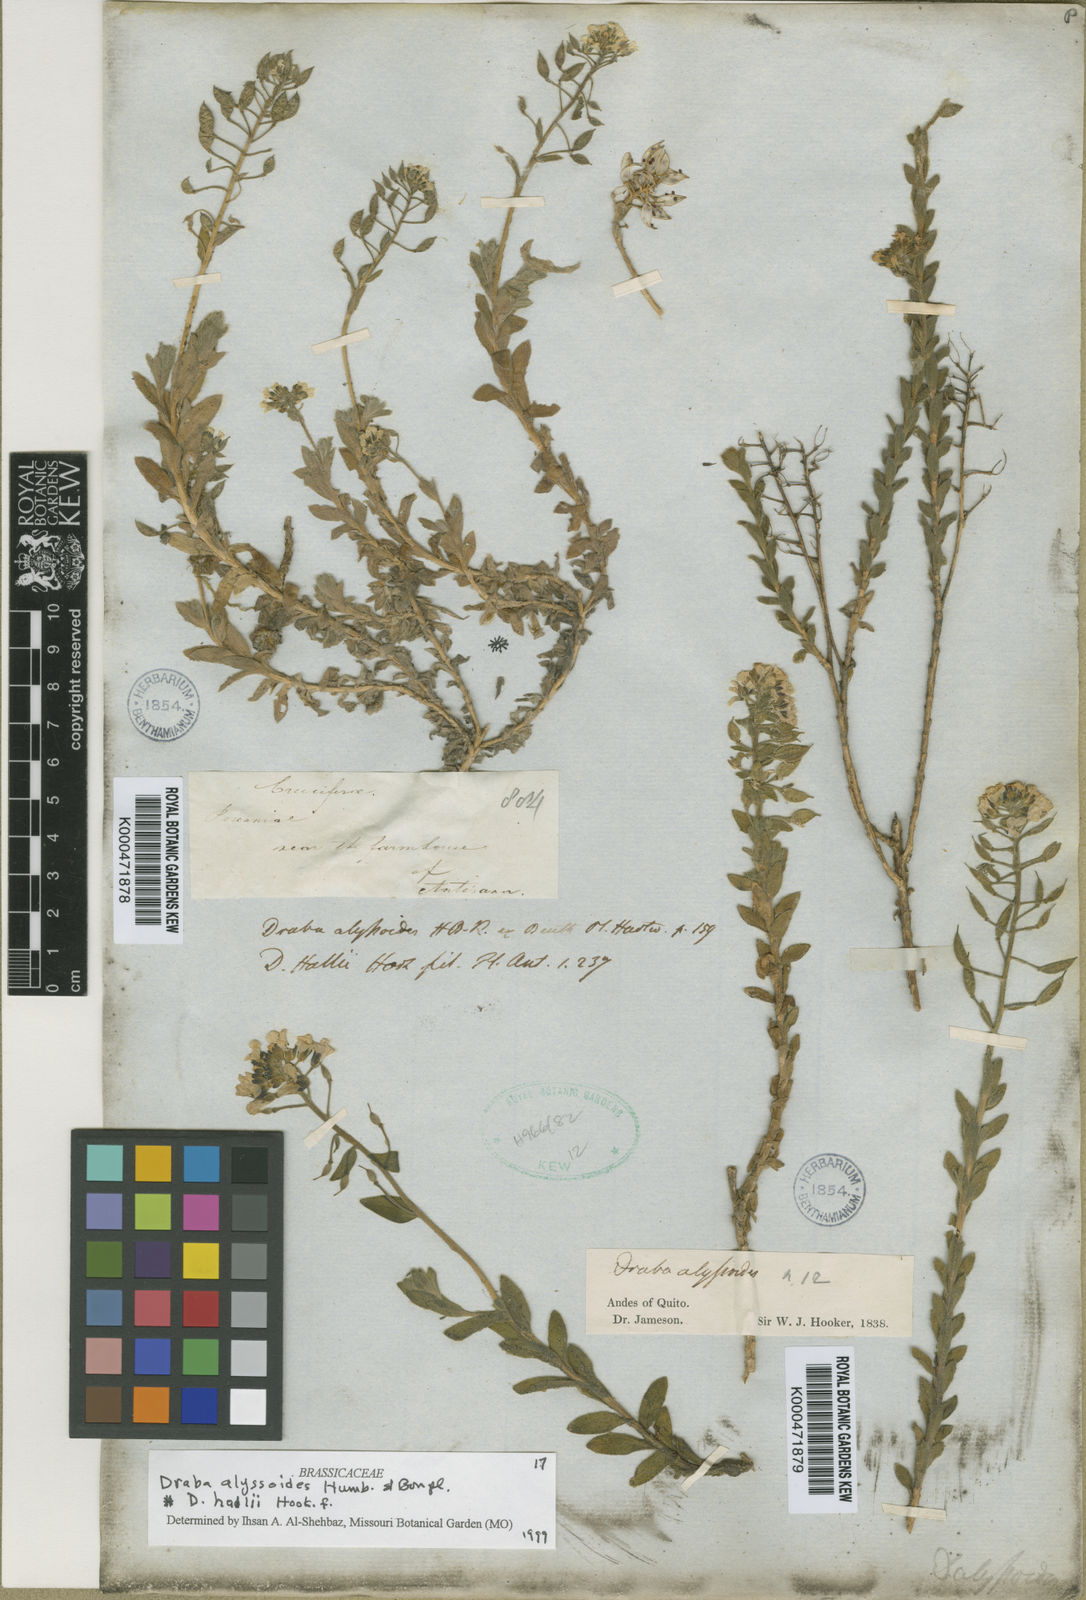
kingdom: Plantae
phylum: Tracheophyta
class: Magnoliopsida
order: Brassicales
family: Brassicaceae
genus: Draba
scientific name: Draba hallii
